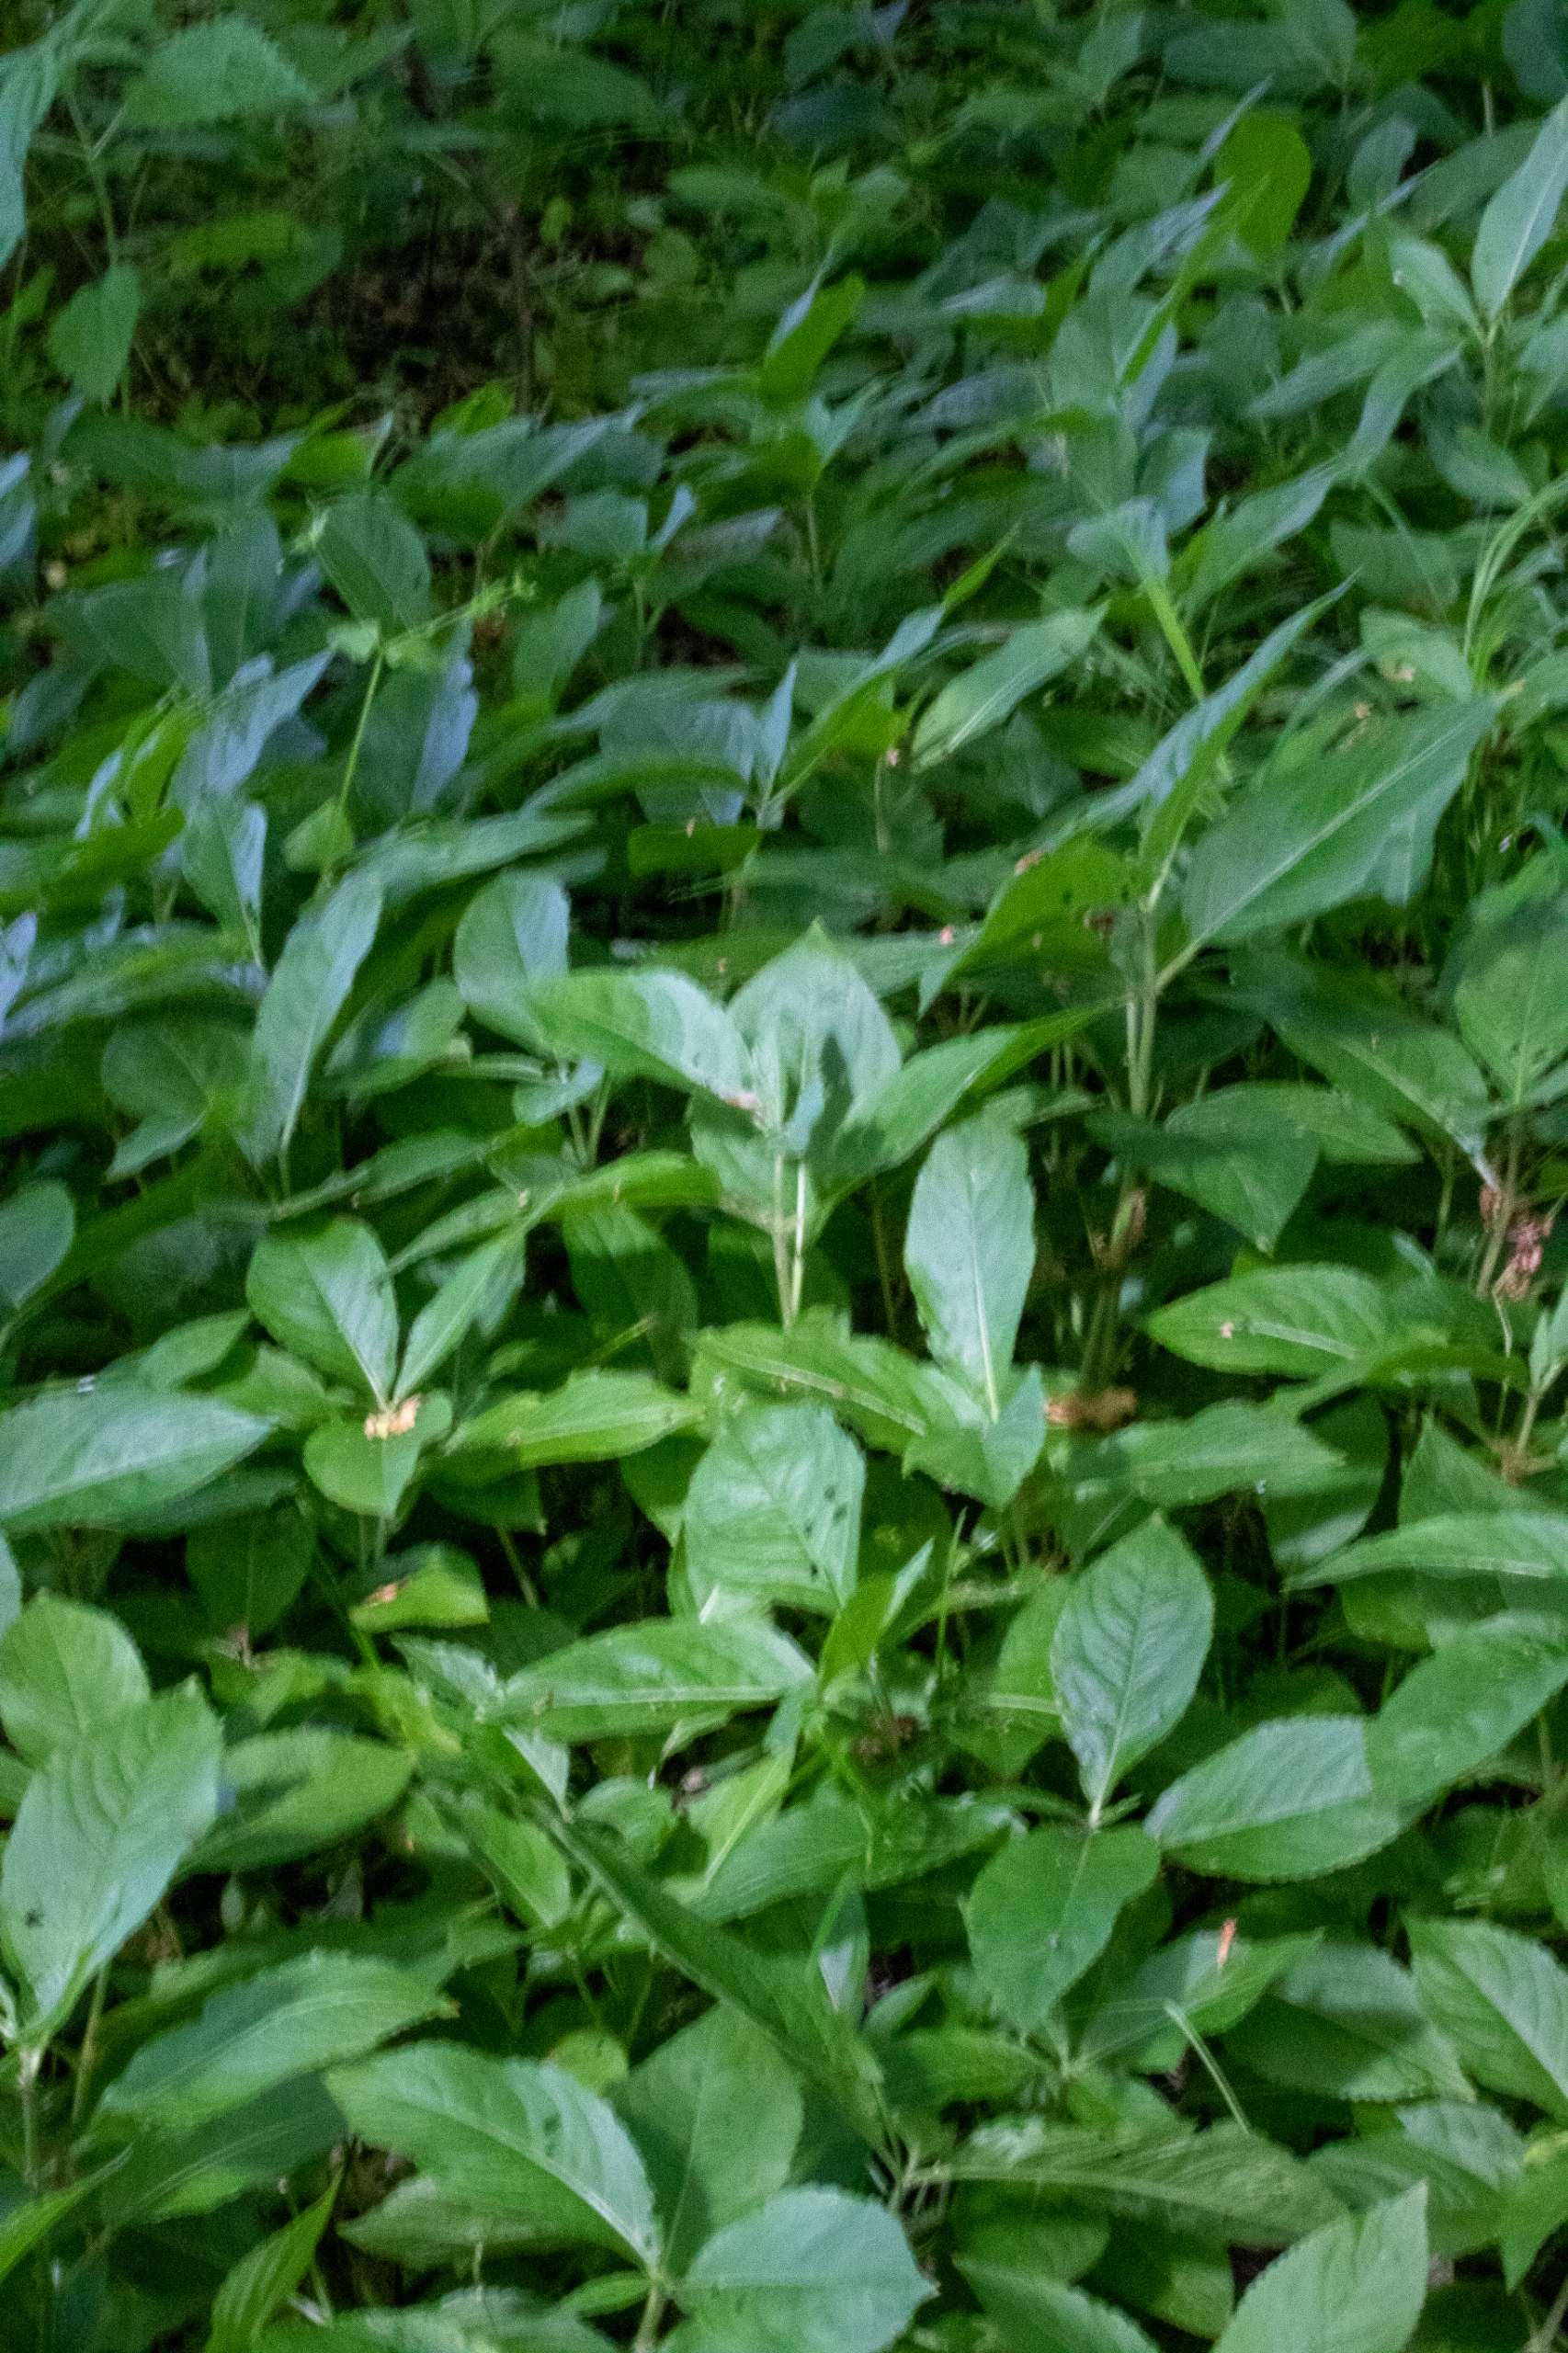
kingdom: Plantae
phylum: Tracheophyta
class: Magnoliopsida
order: Malpighiales
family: Euphorbiaceae
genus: Mercurialis
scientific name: Mercurialis perennis
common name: Almindelig bingelurt
